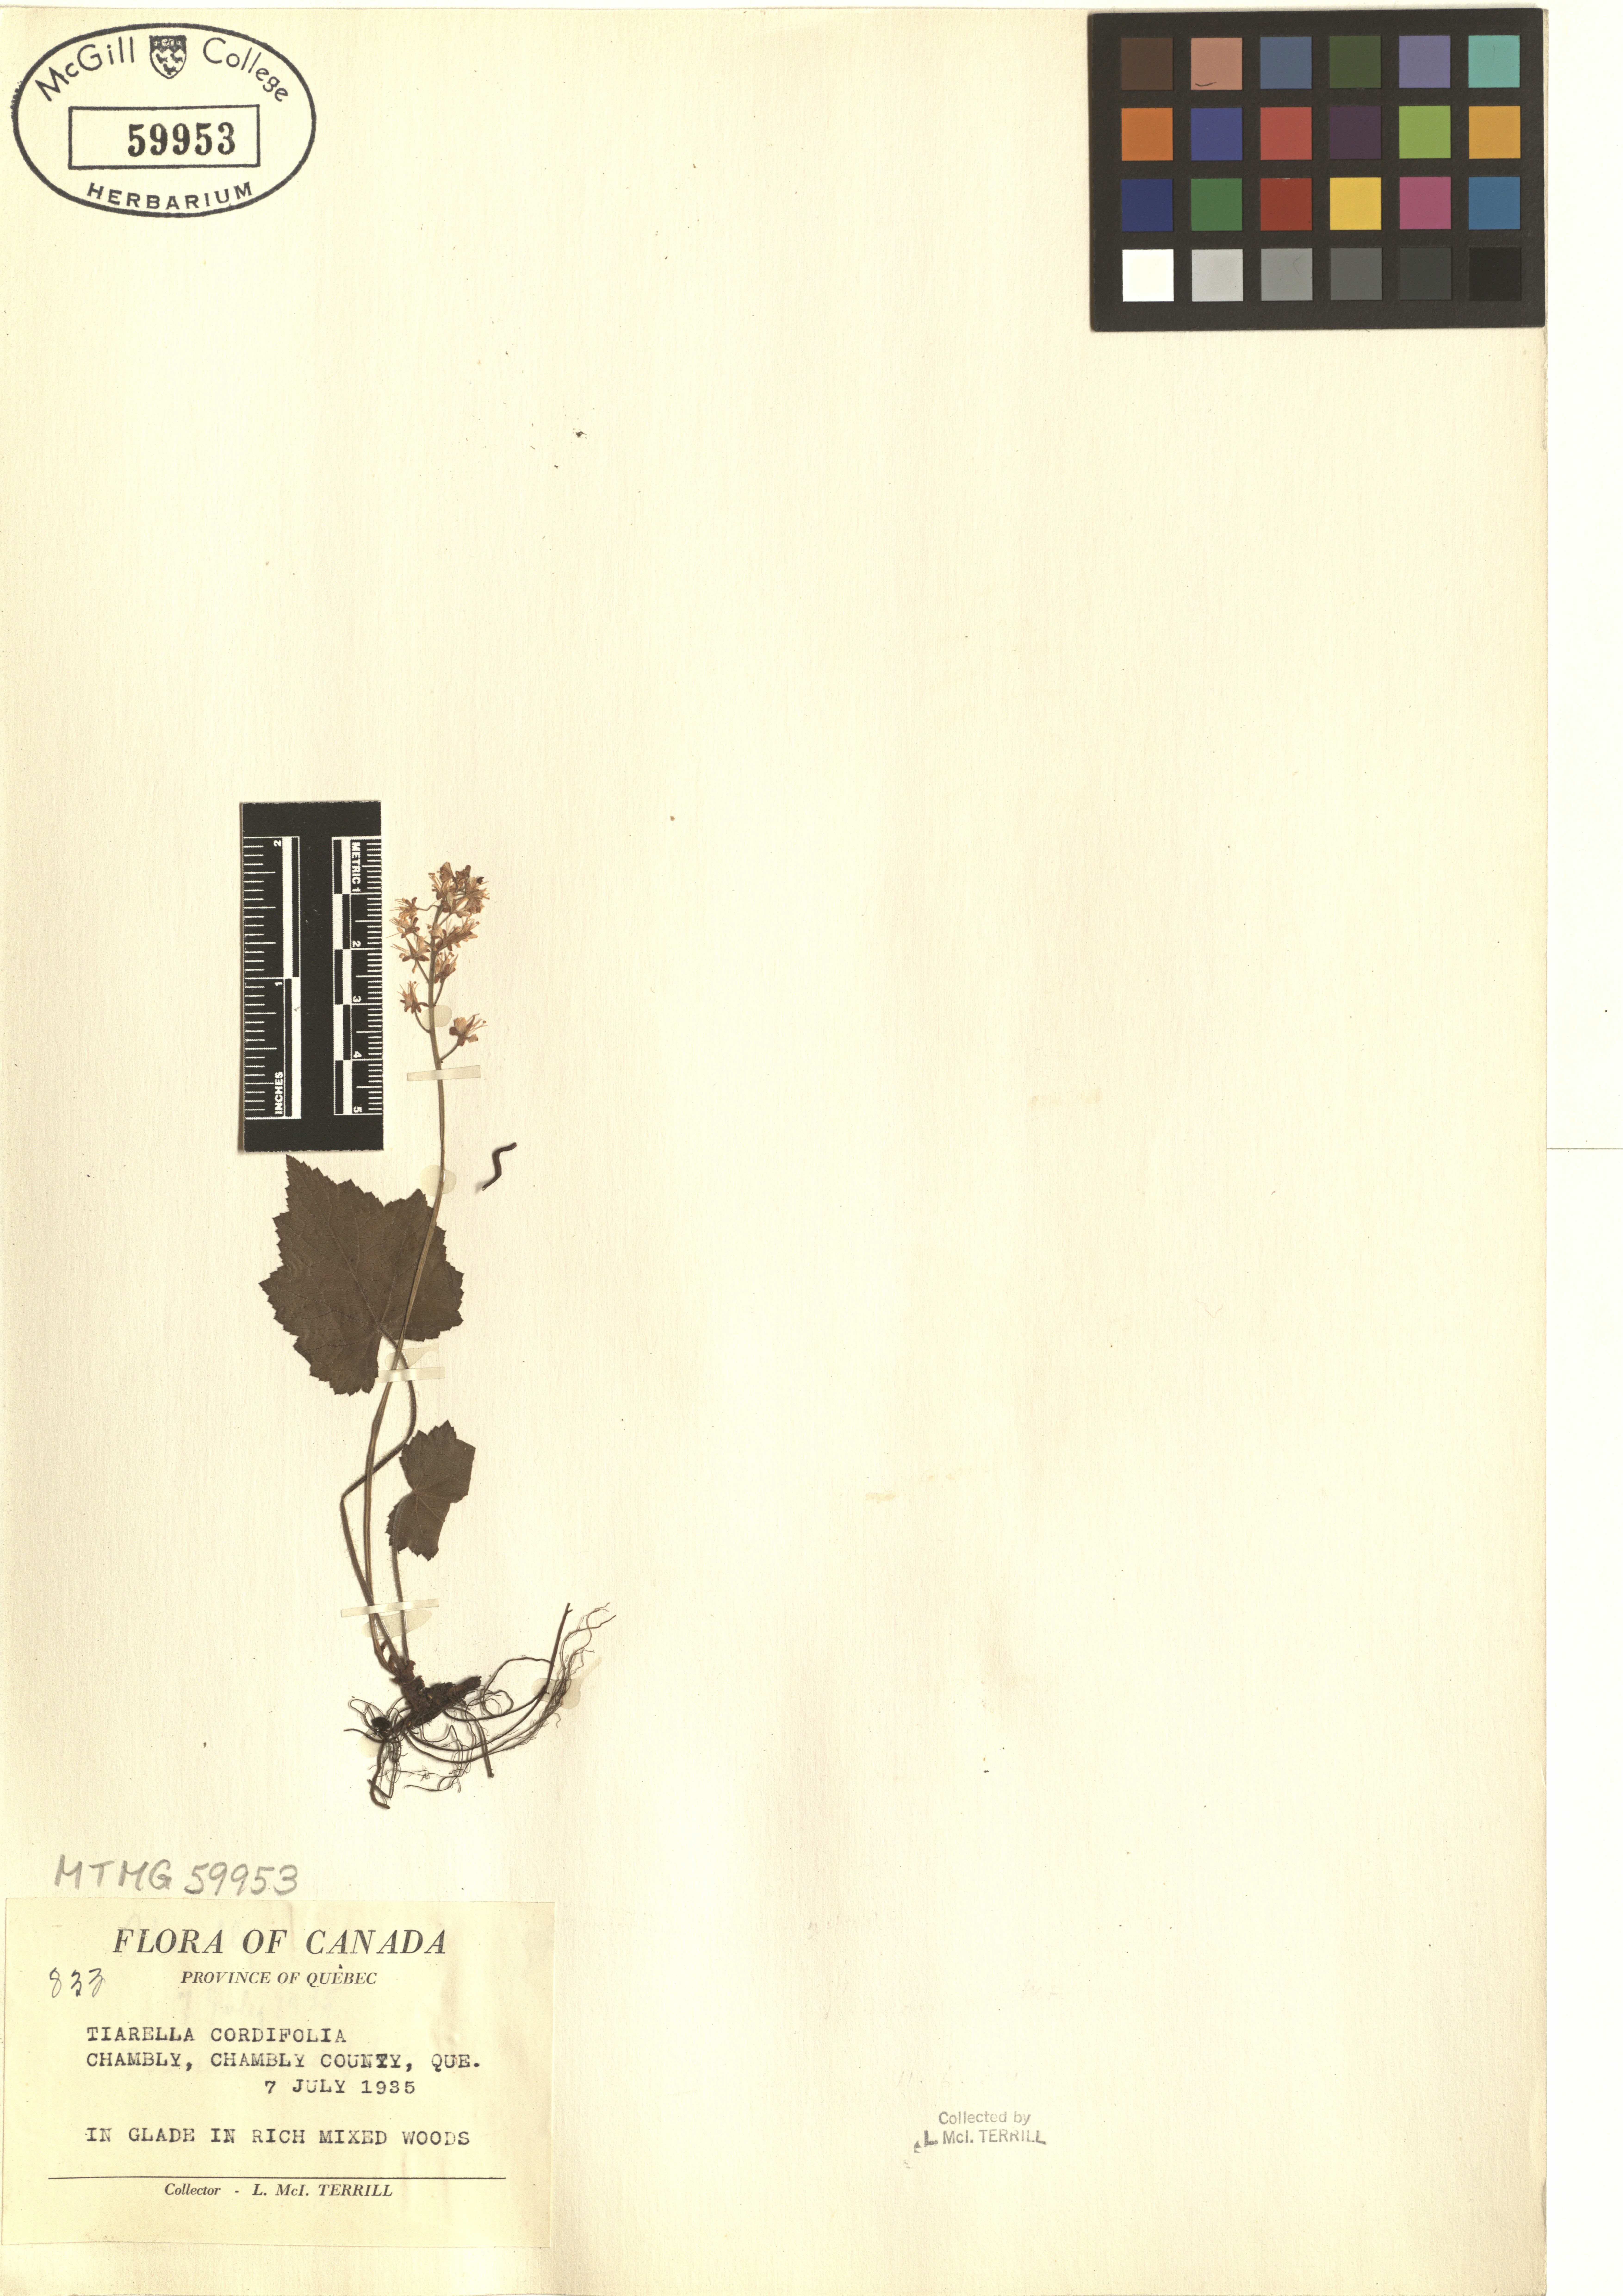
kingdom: Plantae
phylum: Tracheophyta
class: Magnoliopsida
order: Saxifragales
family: Saxifragaceae
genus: Tiarella
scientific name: Tiarella cordifolia
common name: Foamflower
